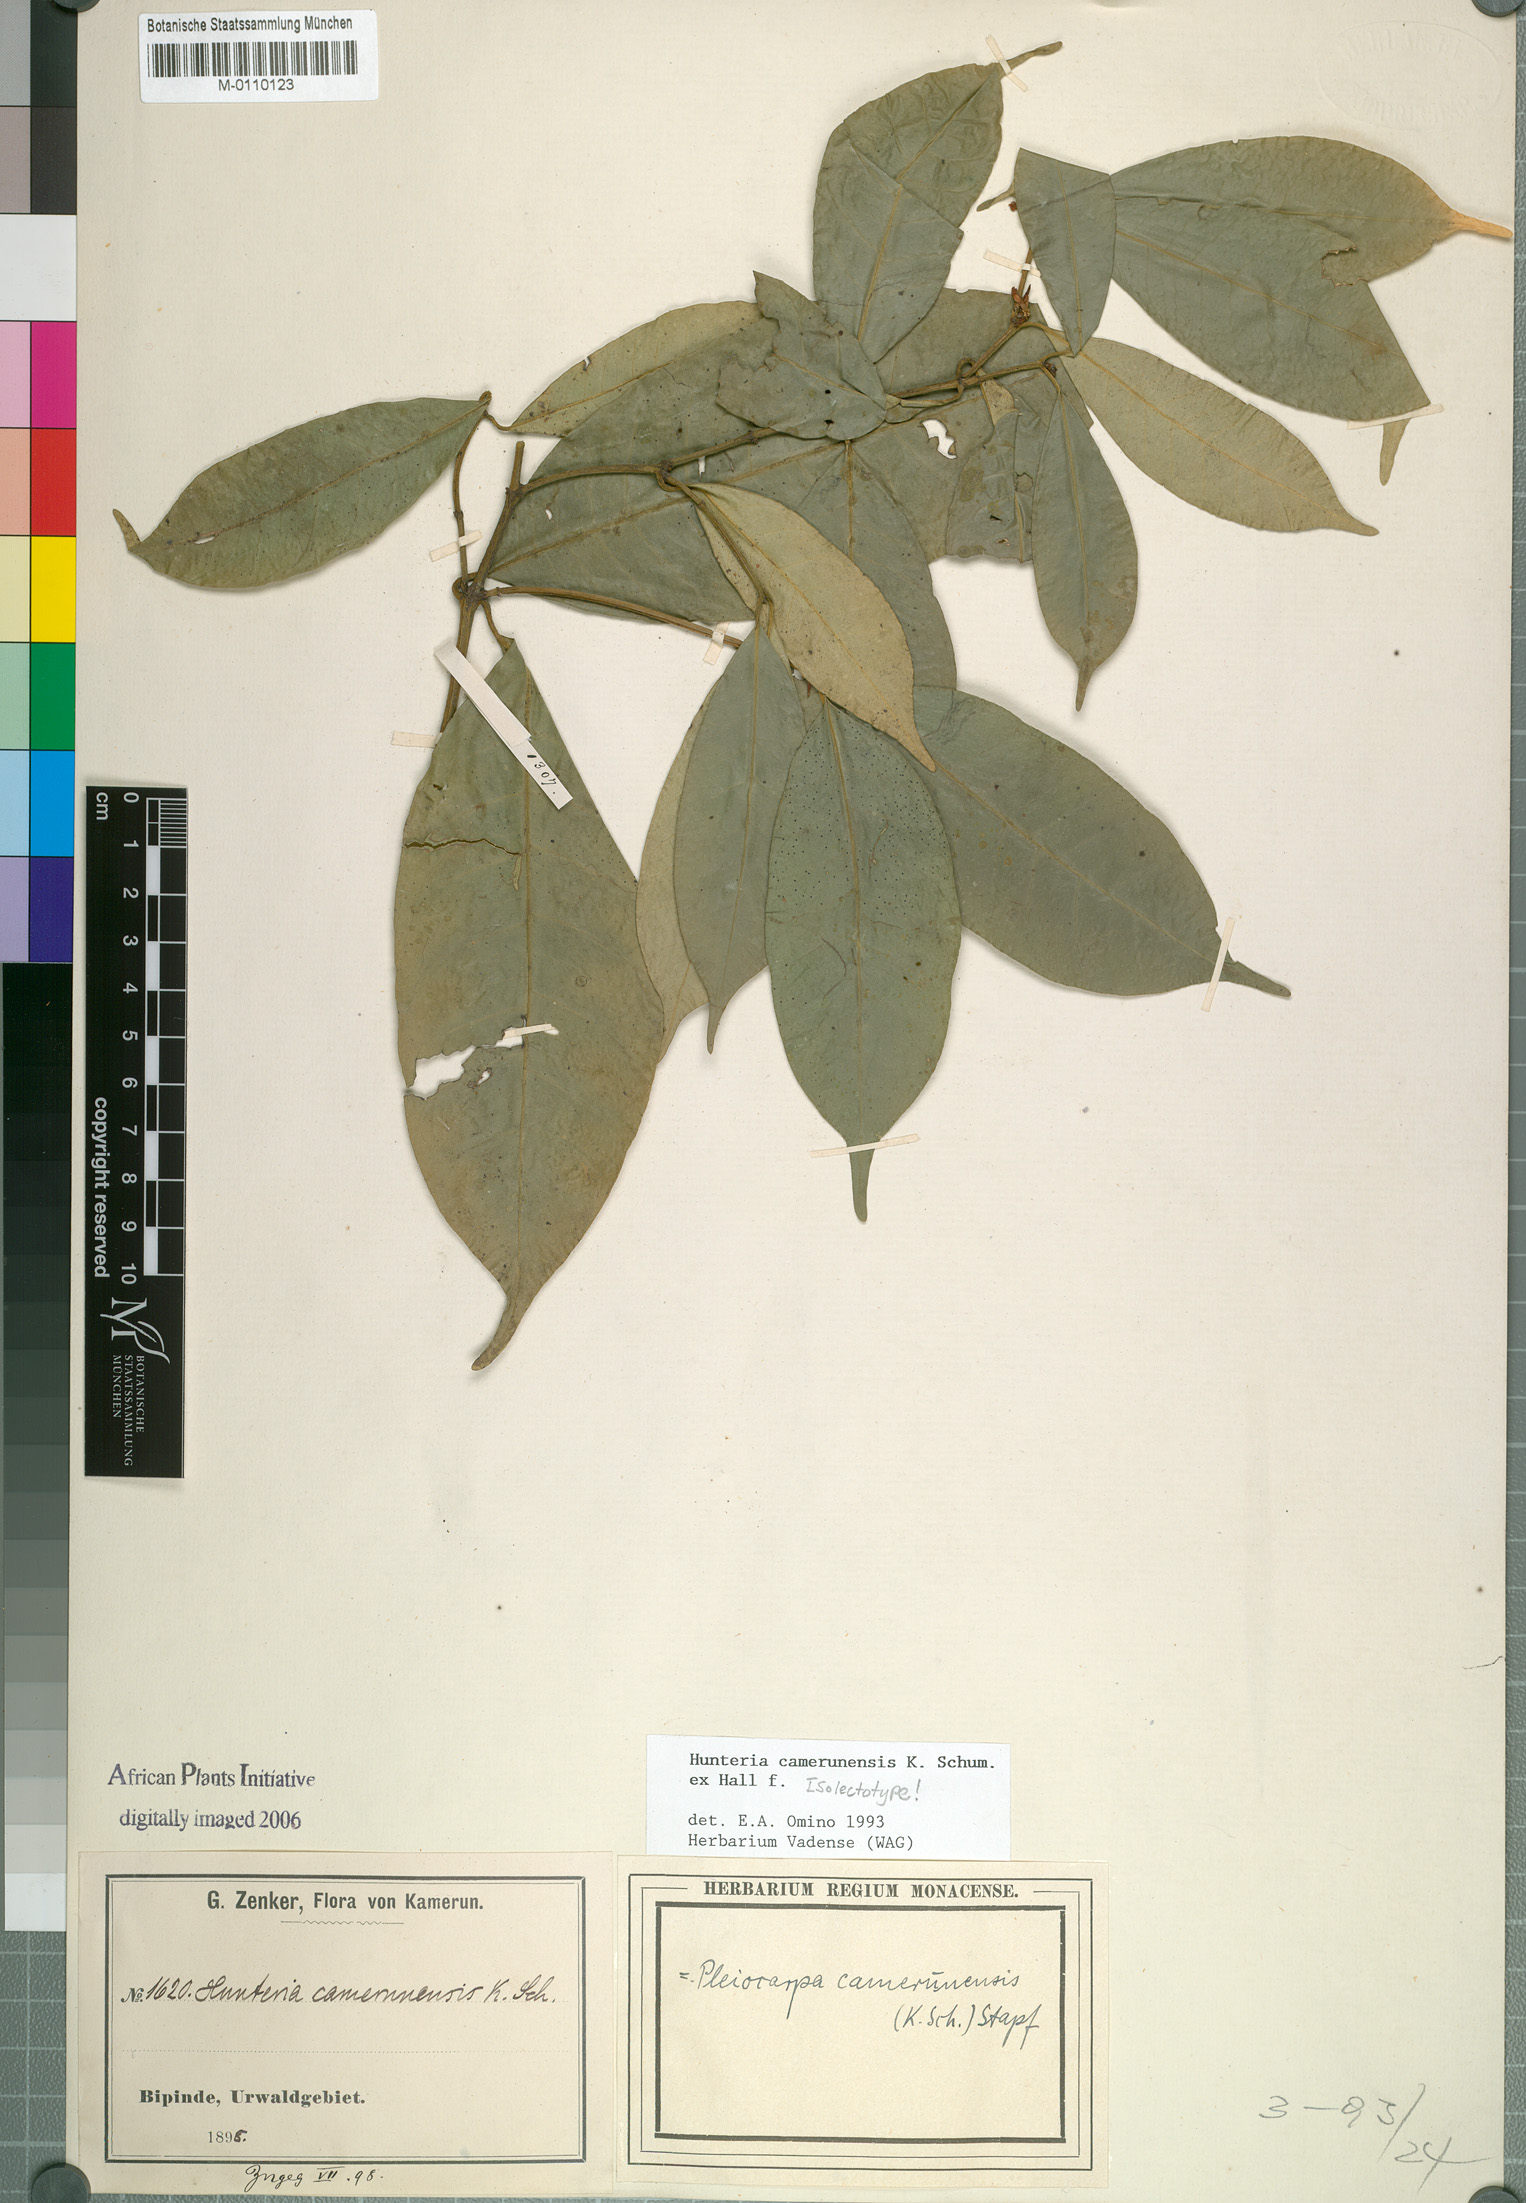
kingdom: Plantae
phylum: Tracheophyta
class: Magnoliopsida
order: Gentianales
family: Apocynaceae
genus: Hunteria
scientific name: Hunteria camerunensis
